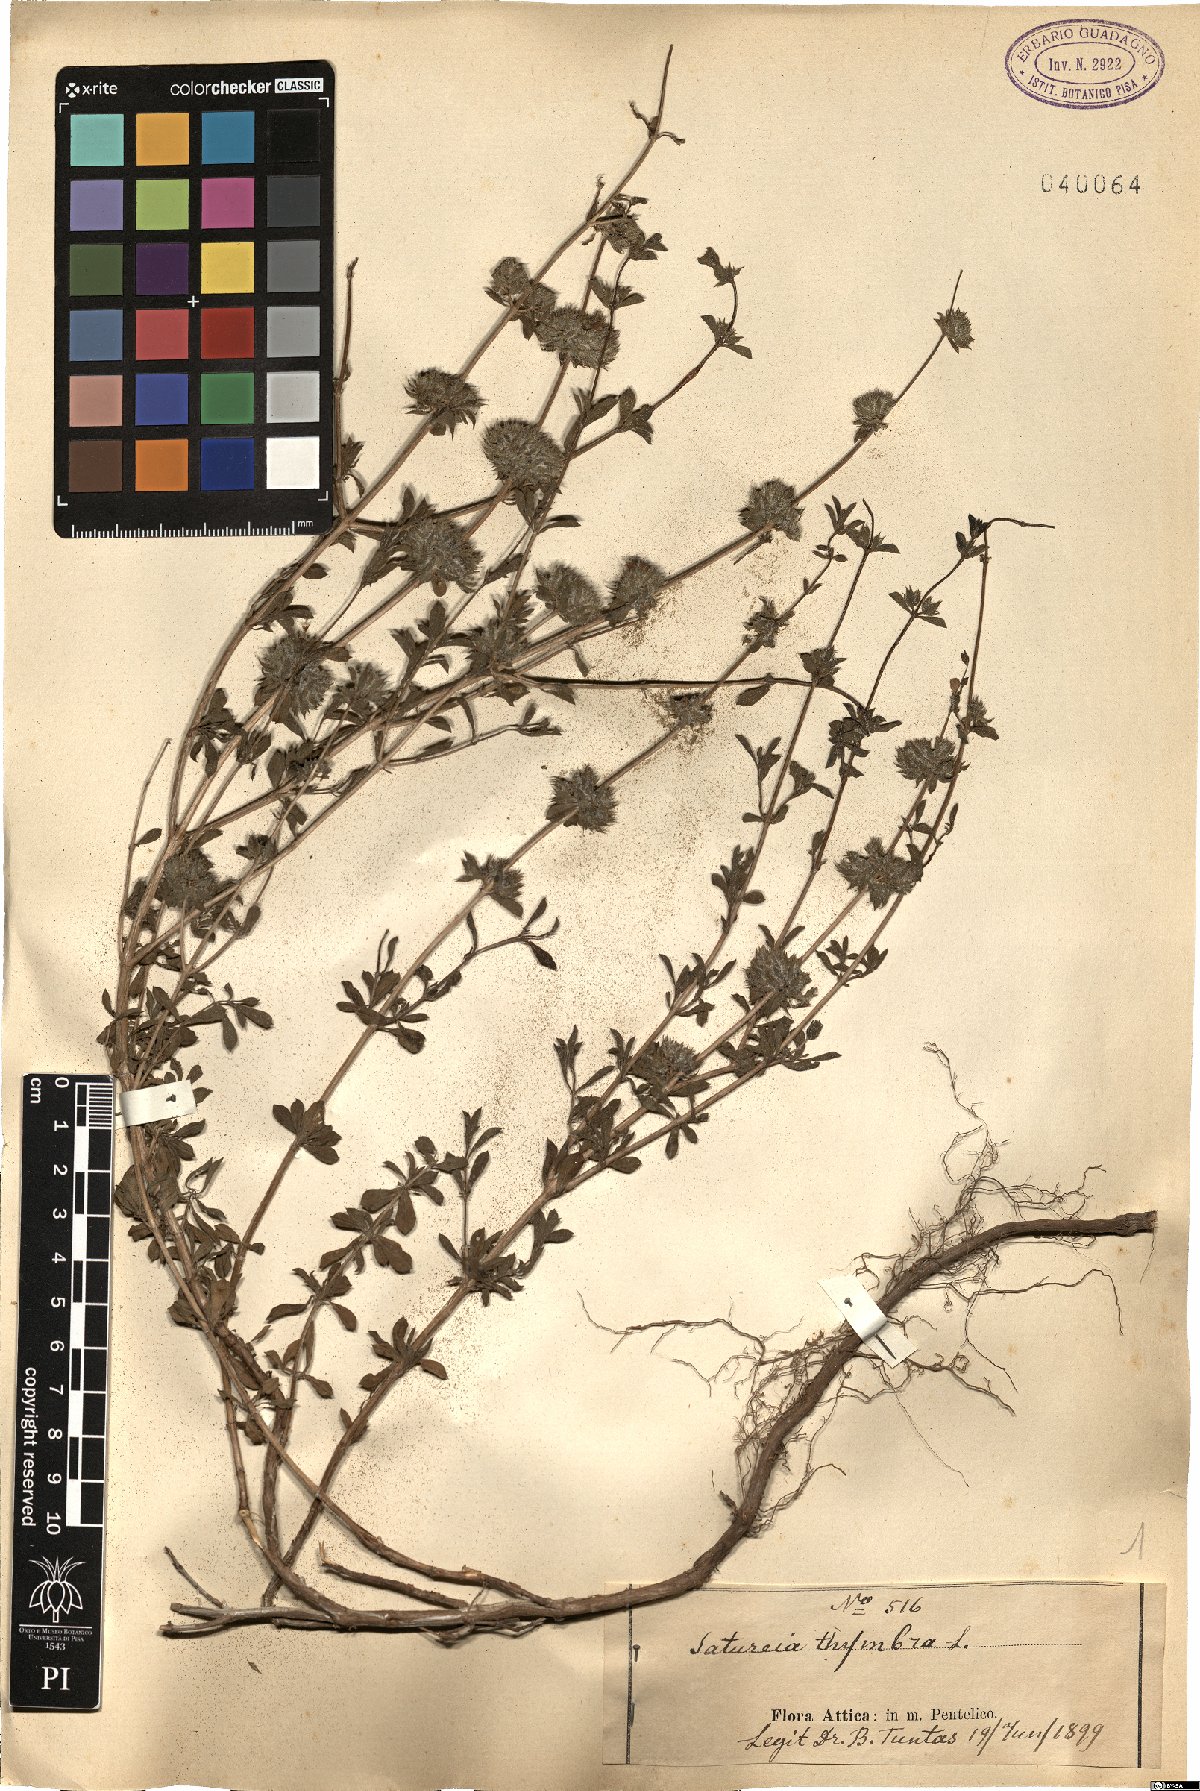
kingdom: Plantae
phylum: Tracheophyta
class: Magnoliopsida
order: Lamiales
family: Lamiaceae
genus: Satureja
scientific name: Satureja thymbra
